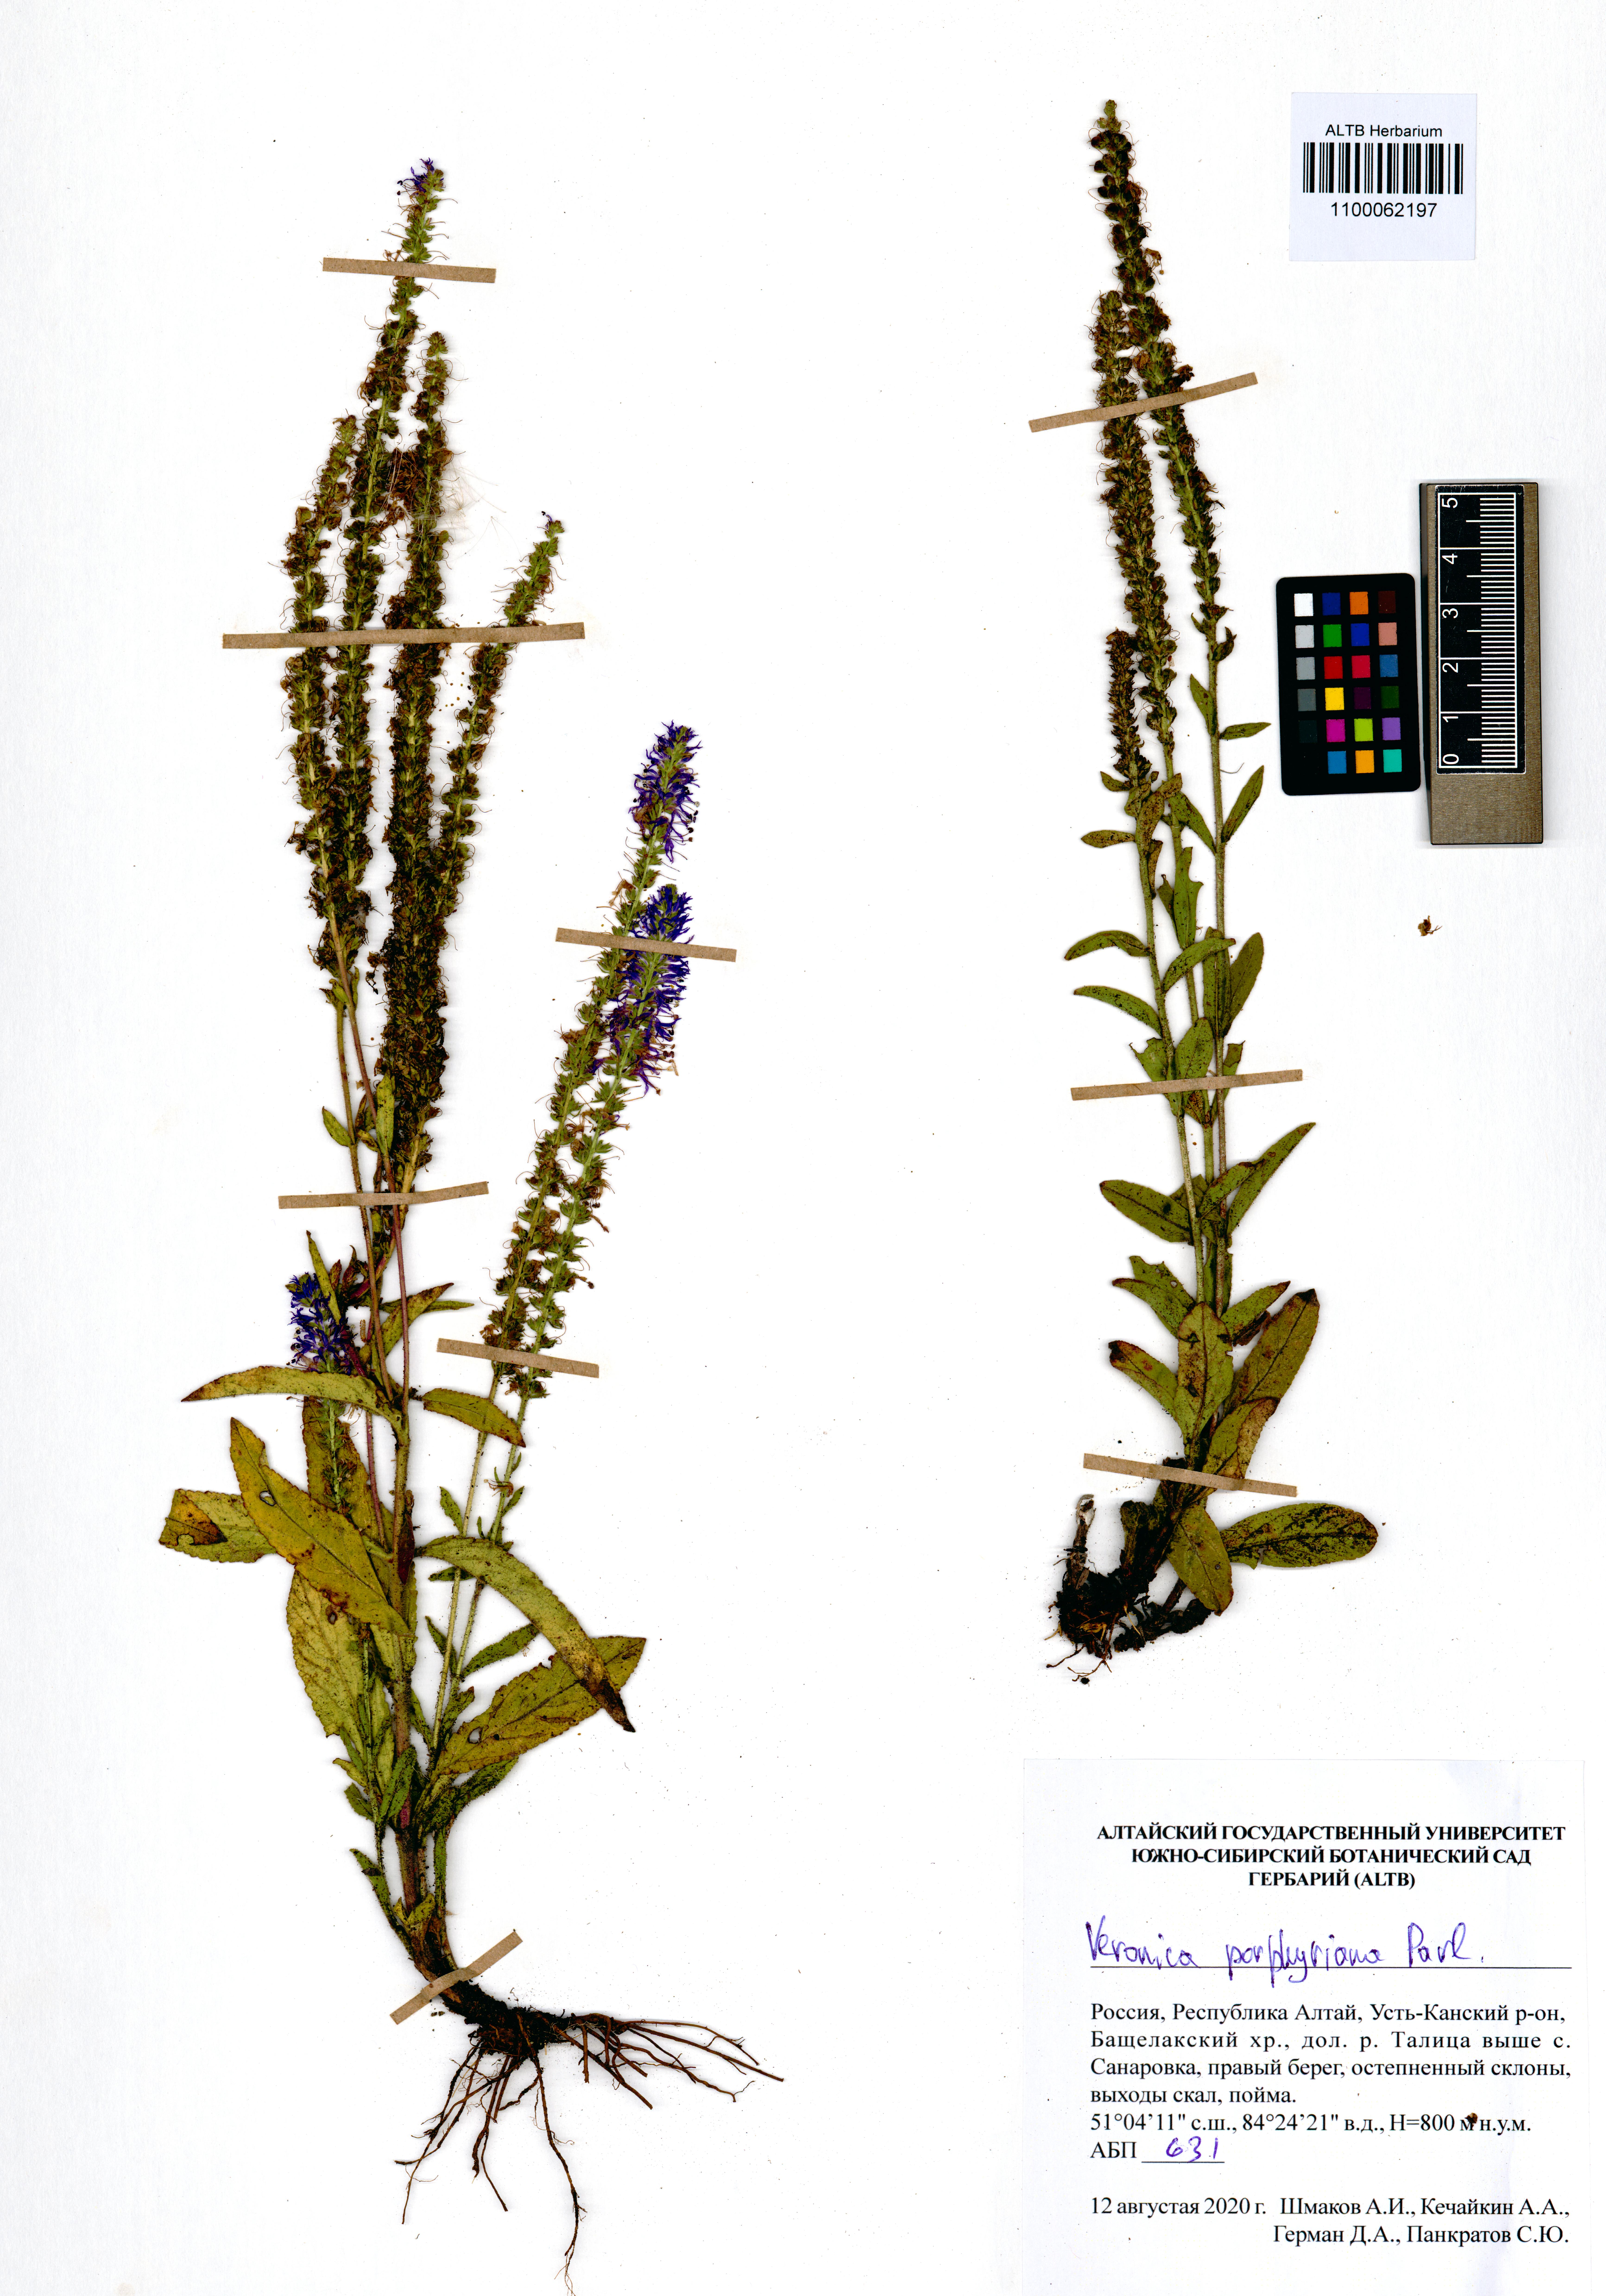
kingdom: Plantae
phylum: Tracheophyta
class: Magnoliopsida
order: Lamiales
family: Plantaginaceae
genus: Veronica
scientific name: Veronica porphyriana
